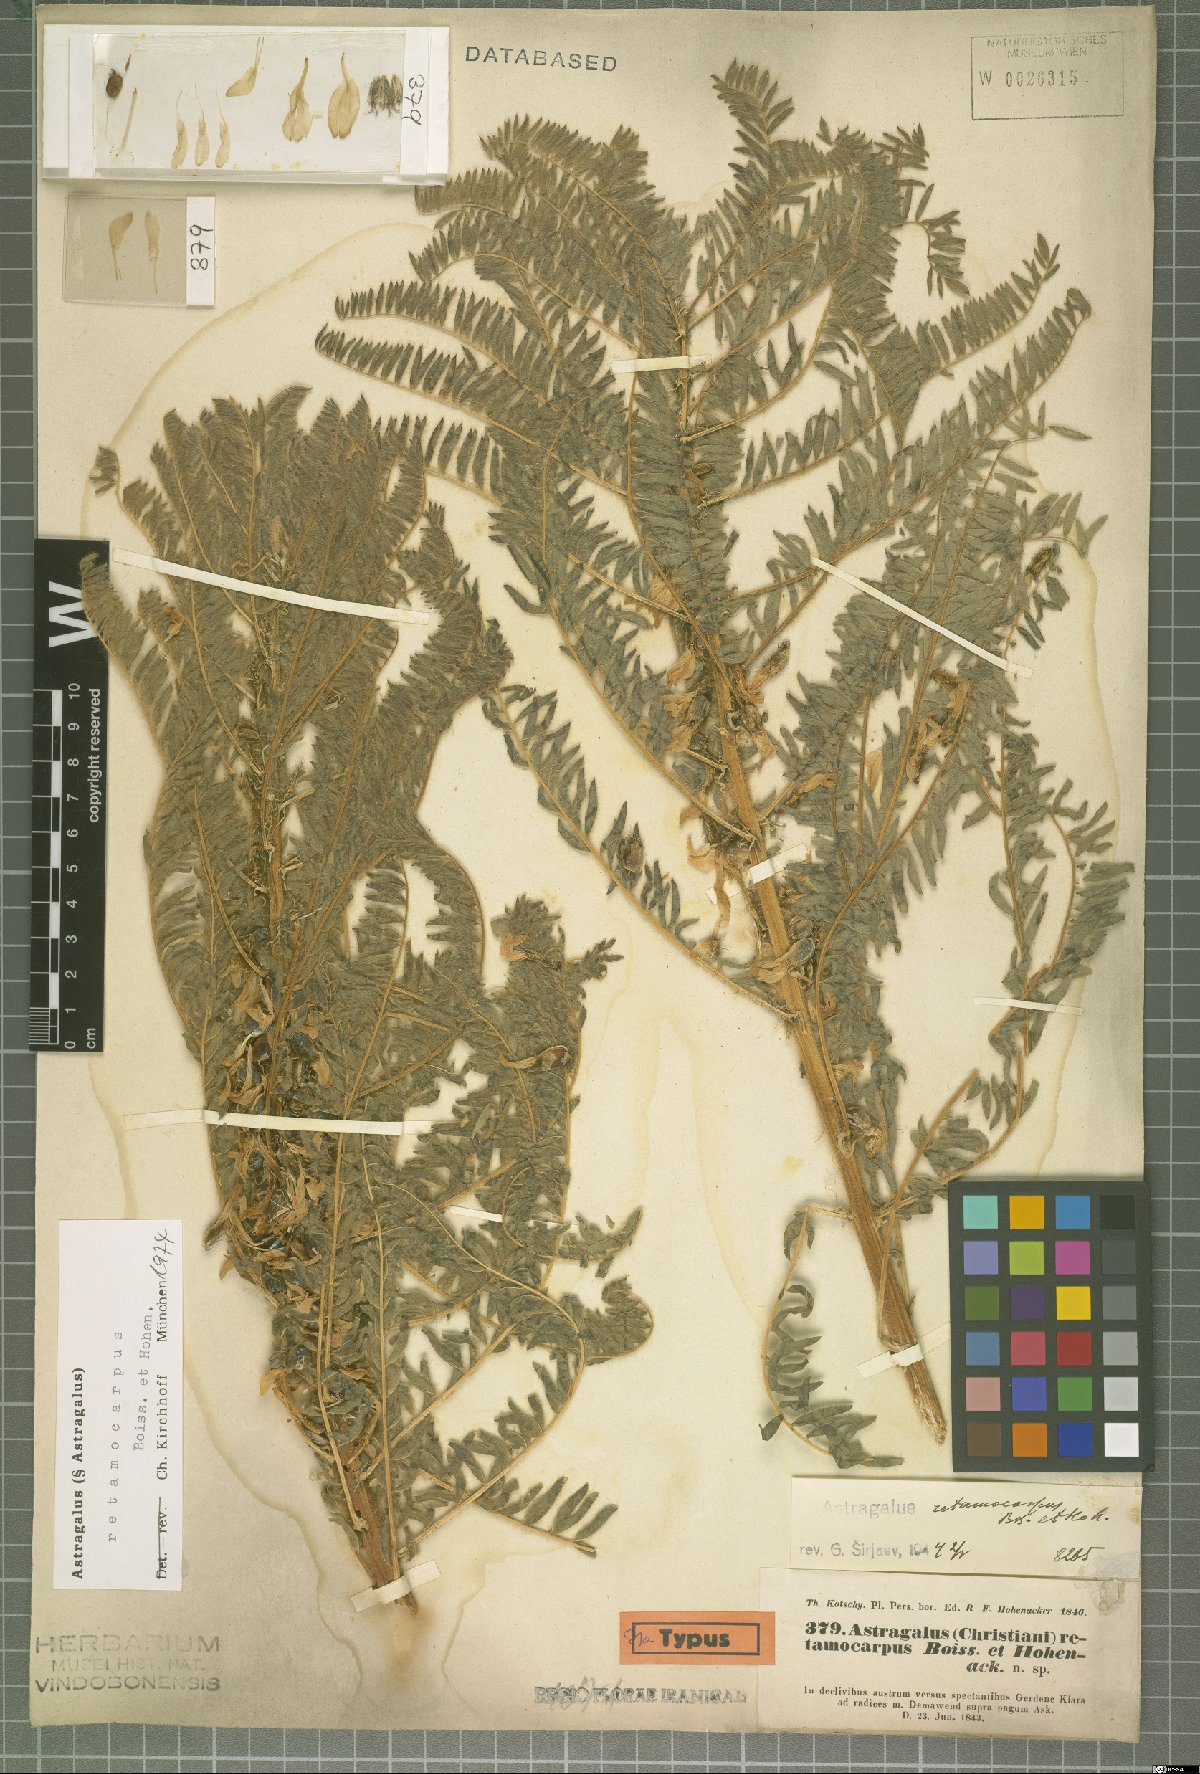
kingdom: Plantae
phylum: Tracheophyta
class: Magnoliopsida
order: Fabales
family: Fabaceae
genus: Astragalus
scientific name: Astragalus retamocarpus
